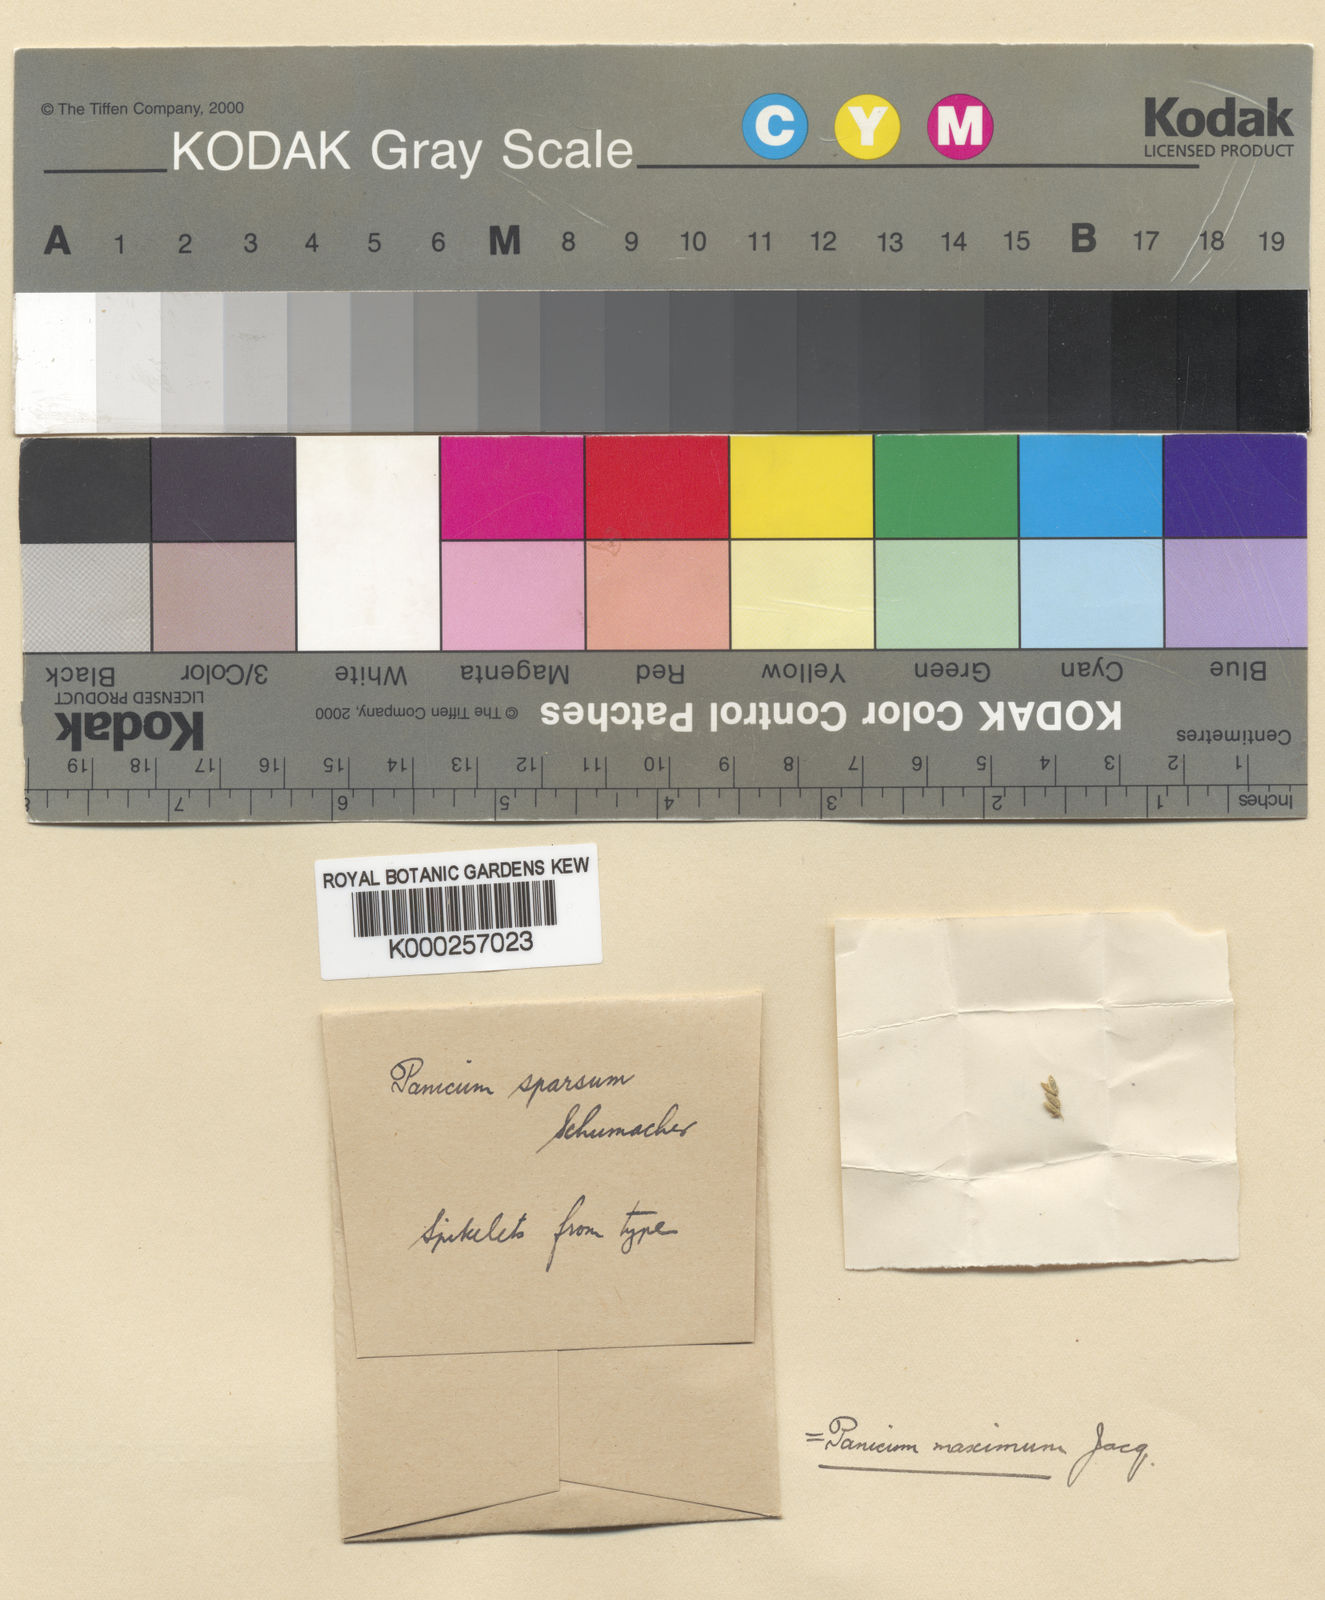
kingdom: Plantae
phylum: Tracheophyta
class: Liliopsida
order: Poales
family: Poaceae
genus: Megathyrsus
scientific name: Megathyrsus maximus
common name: Guineagrass
